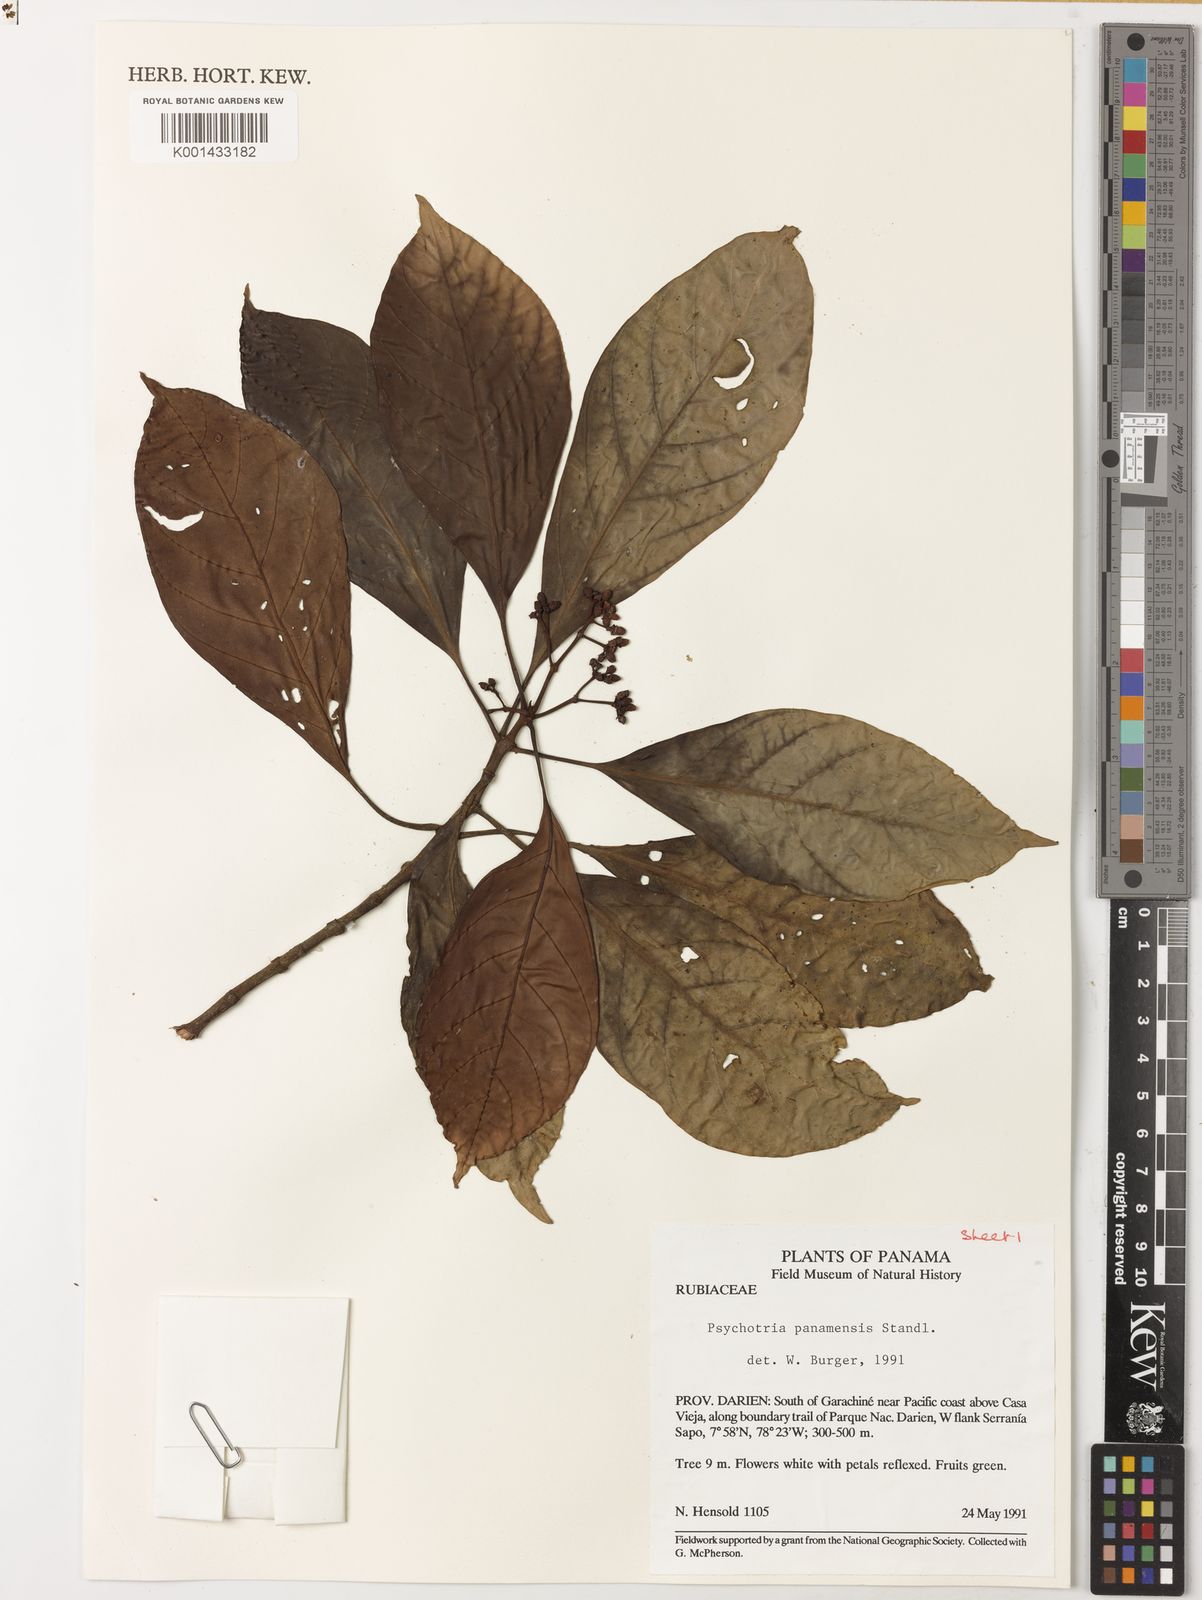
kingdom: Plantae
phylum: Tracheophyta
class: Magnoliopsida
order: Gentianales
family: Rubiaceae
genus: Psychotria
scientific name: Psychotria panamensis
